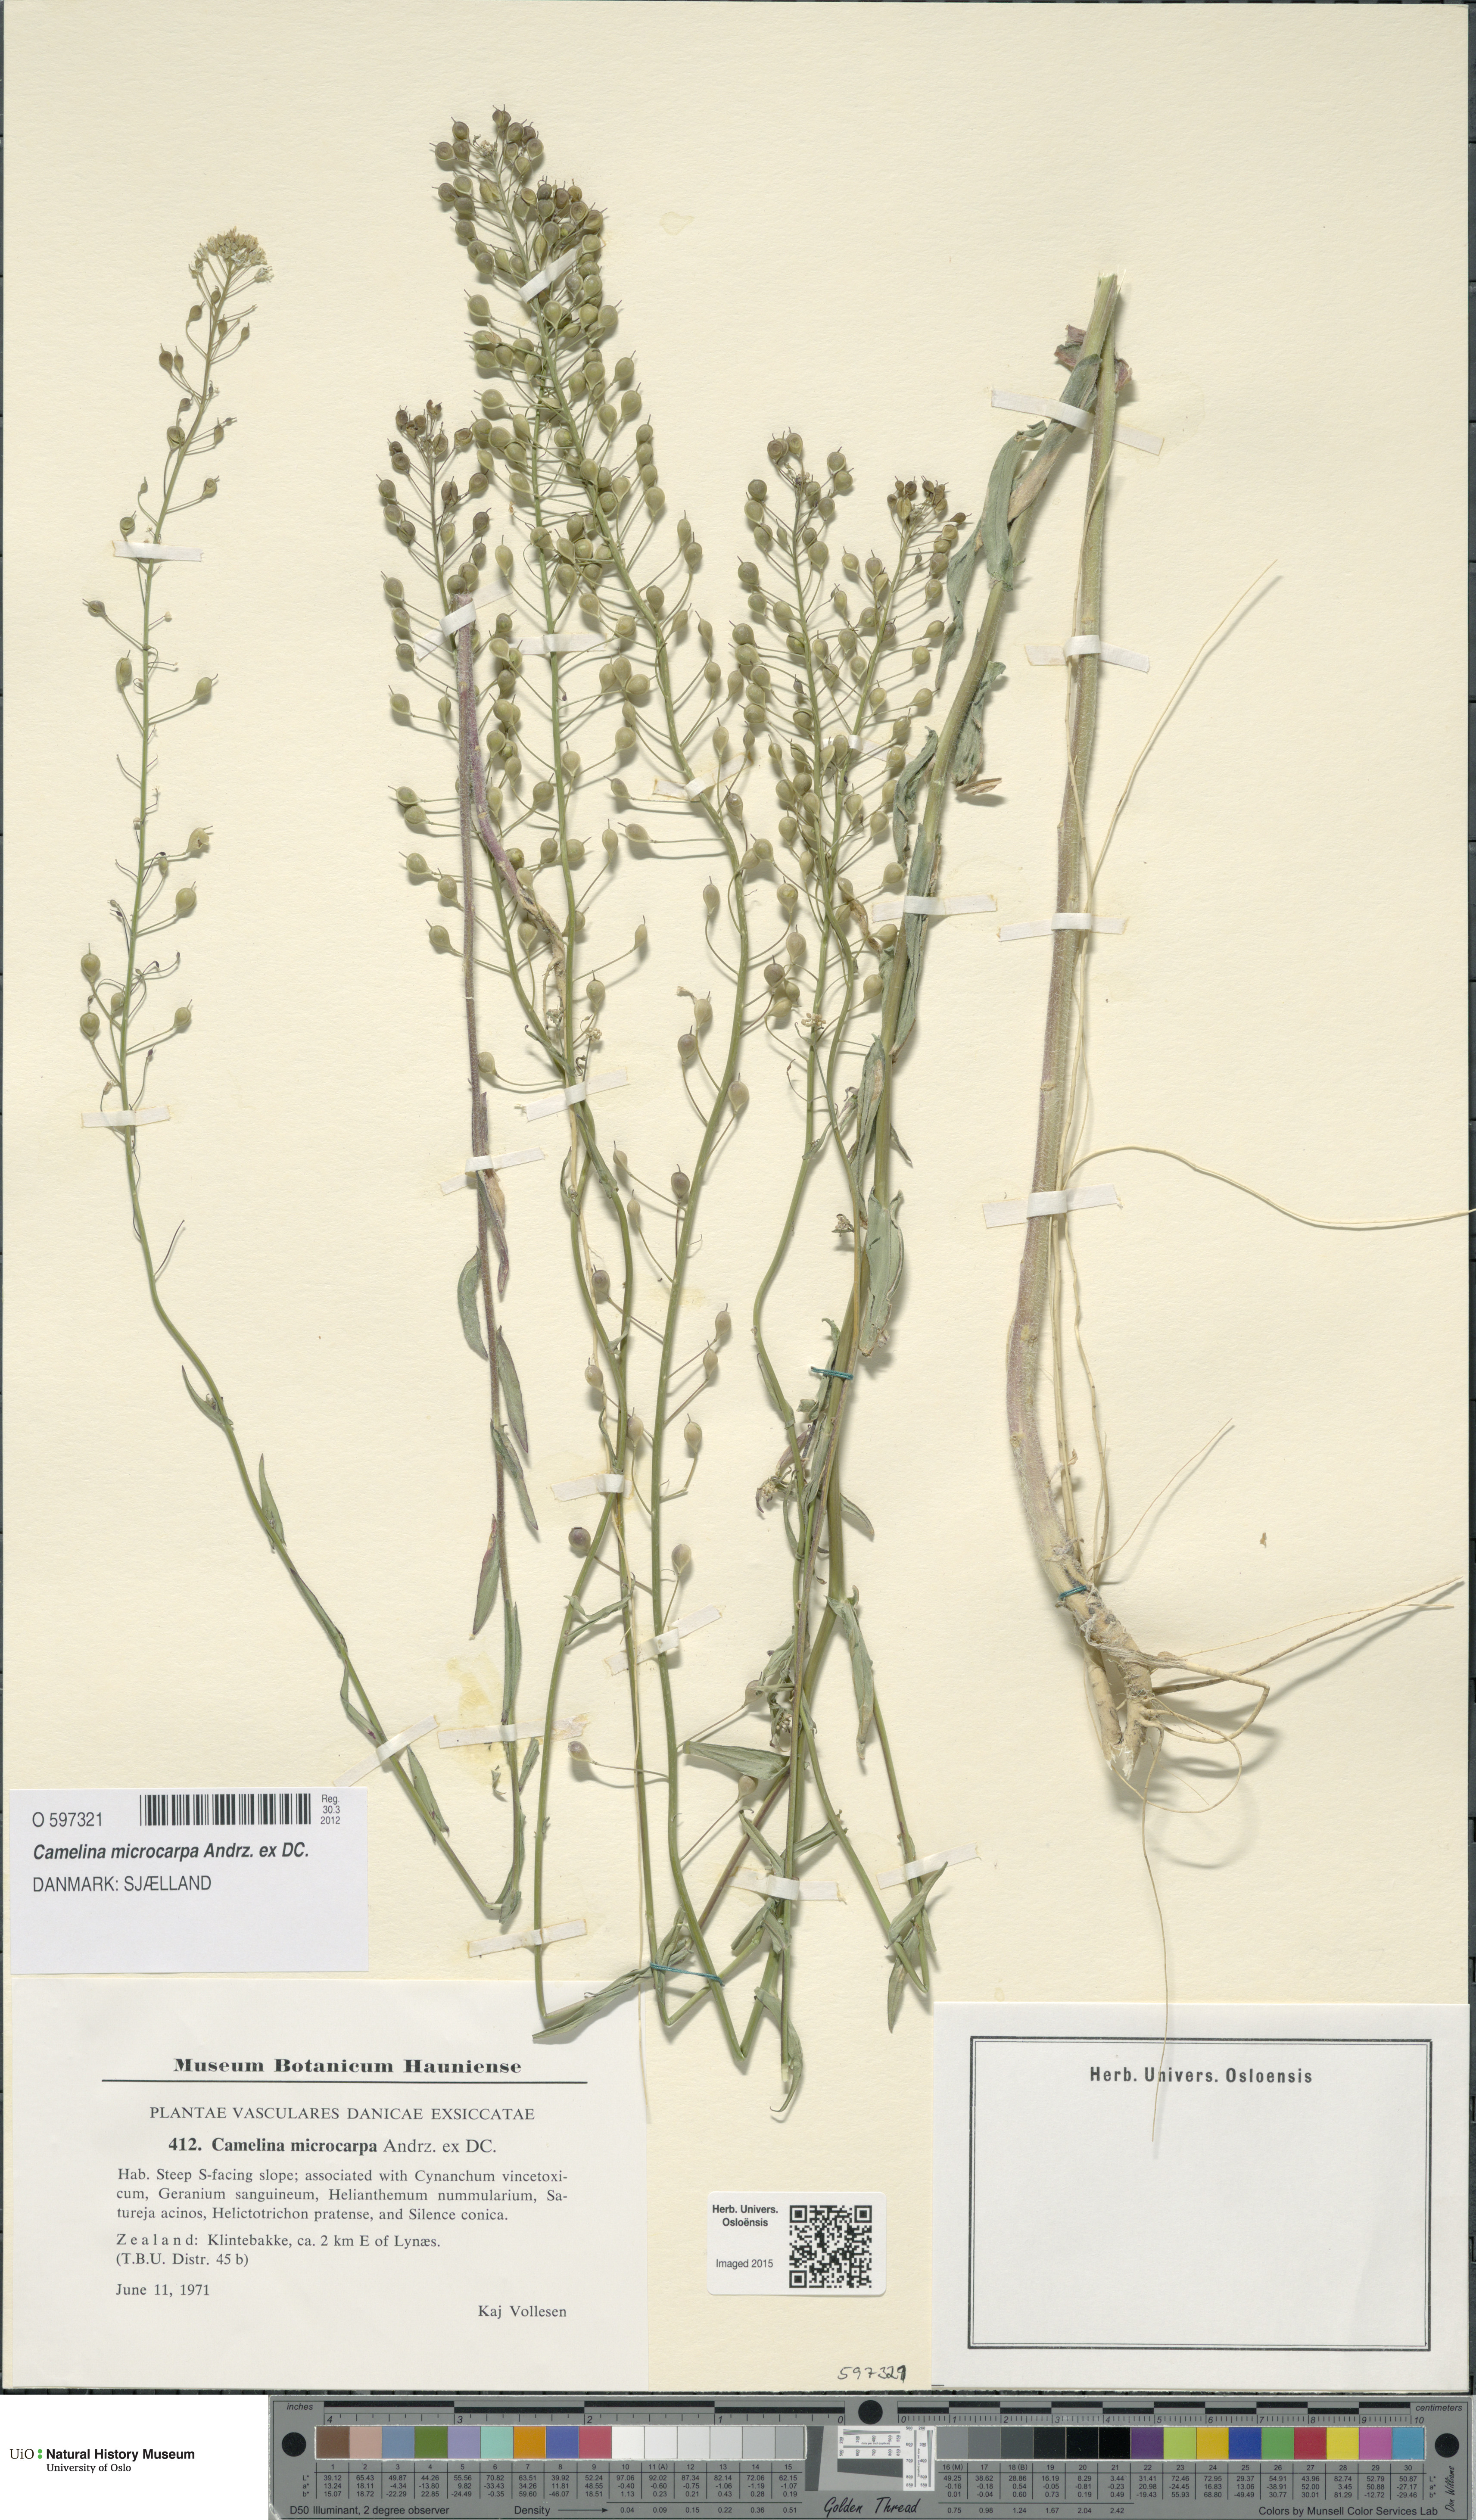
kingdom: Plantae
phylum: Tracheophyta
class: Magnoliopsida
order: Brassicales
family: Brassicaceae
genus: Camelina
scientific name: Camelina sativa
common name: Gold-of-pleasure
